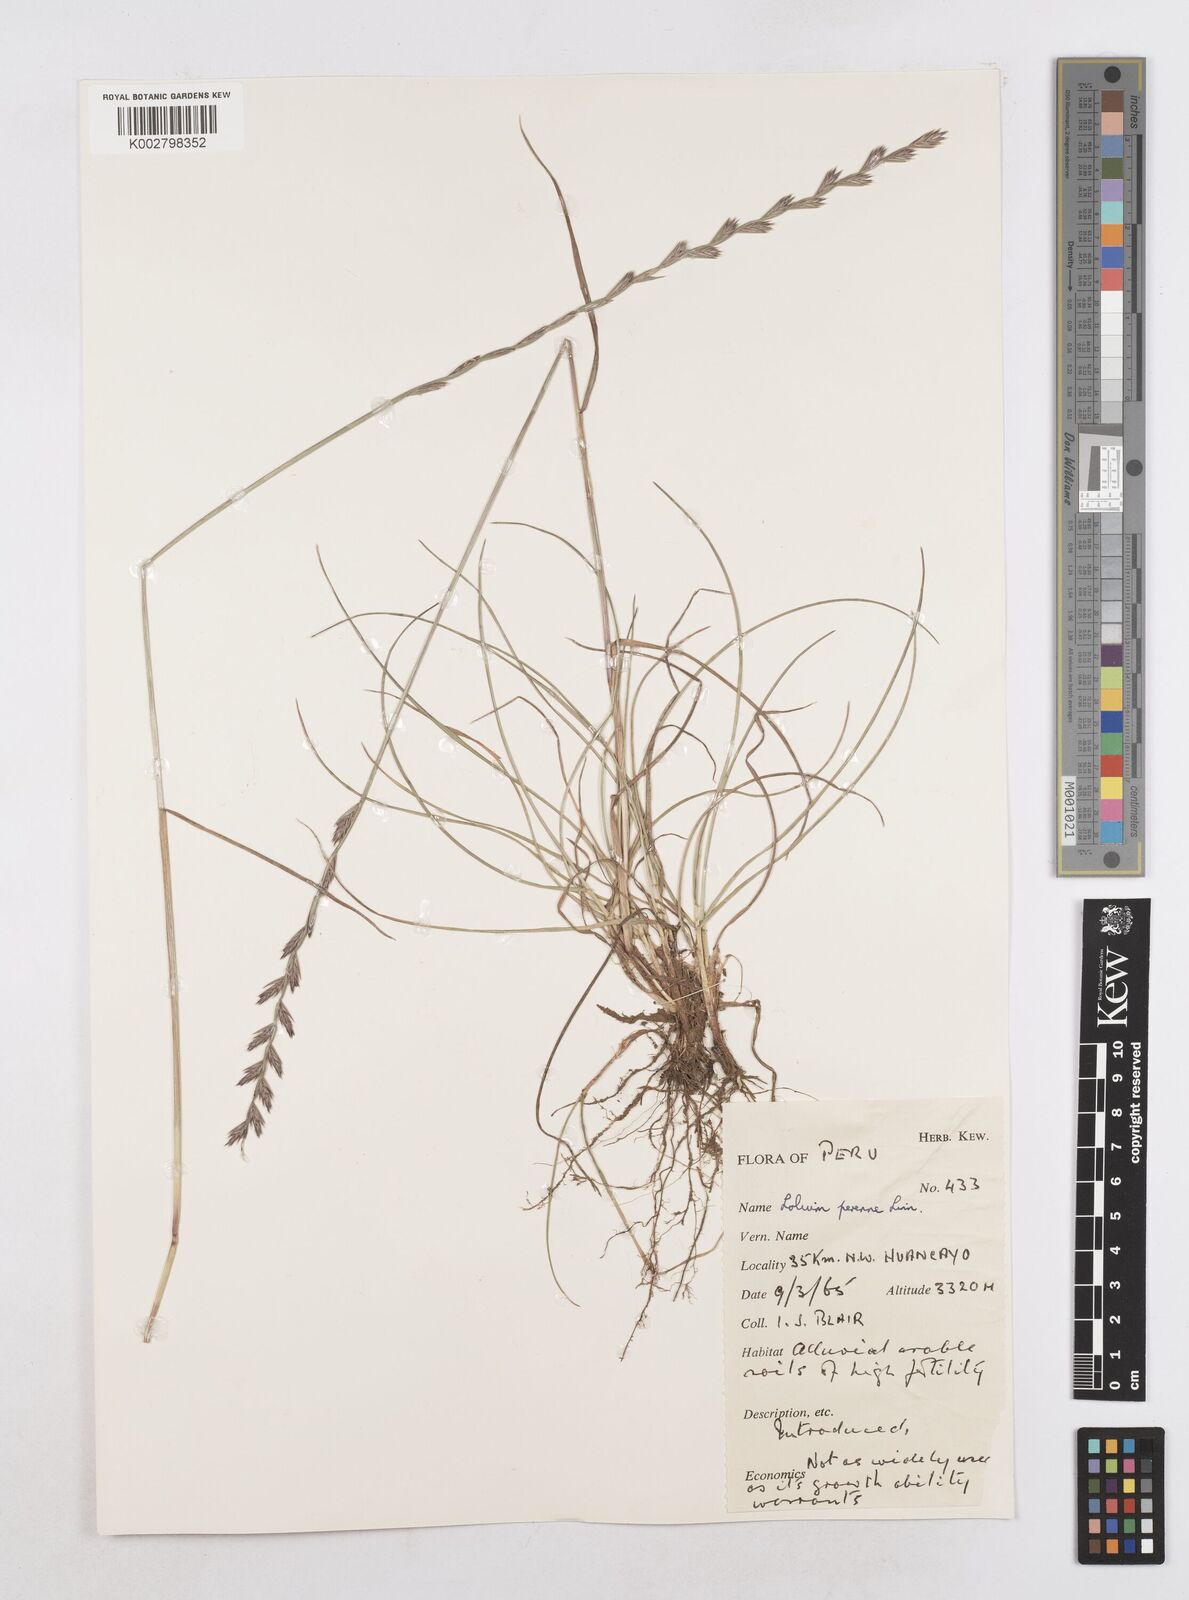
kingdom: Plantae
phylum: Tracheophyta
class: Liliopsida
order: Poales
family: Poaceae
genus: Lolium
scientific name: Lolium perenne
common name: Perennial ryegrass
